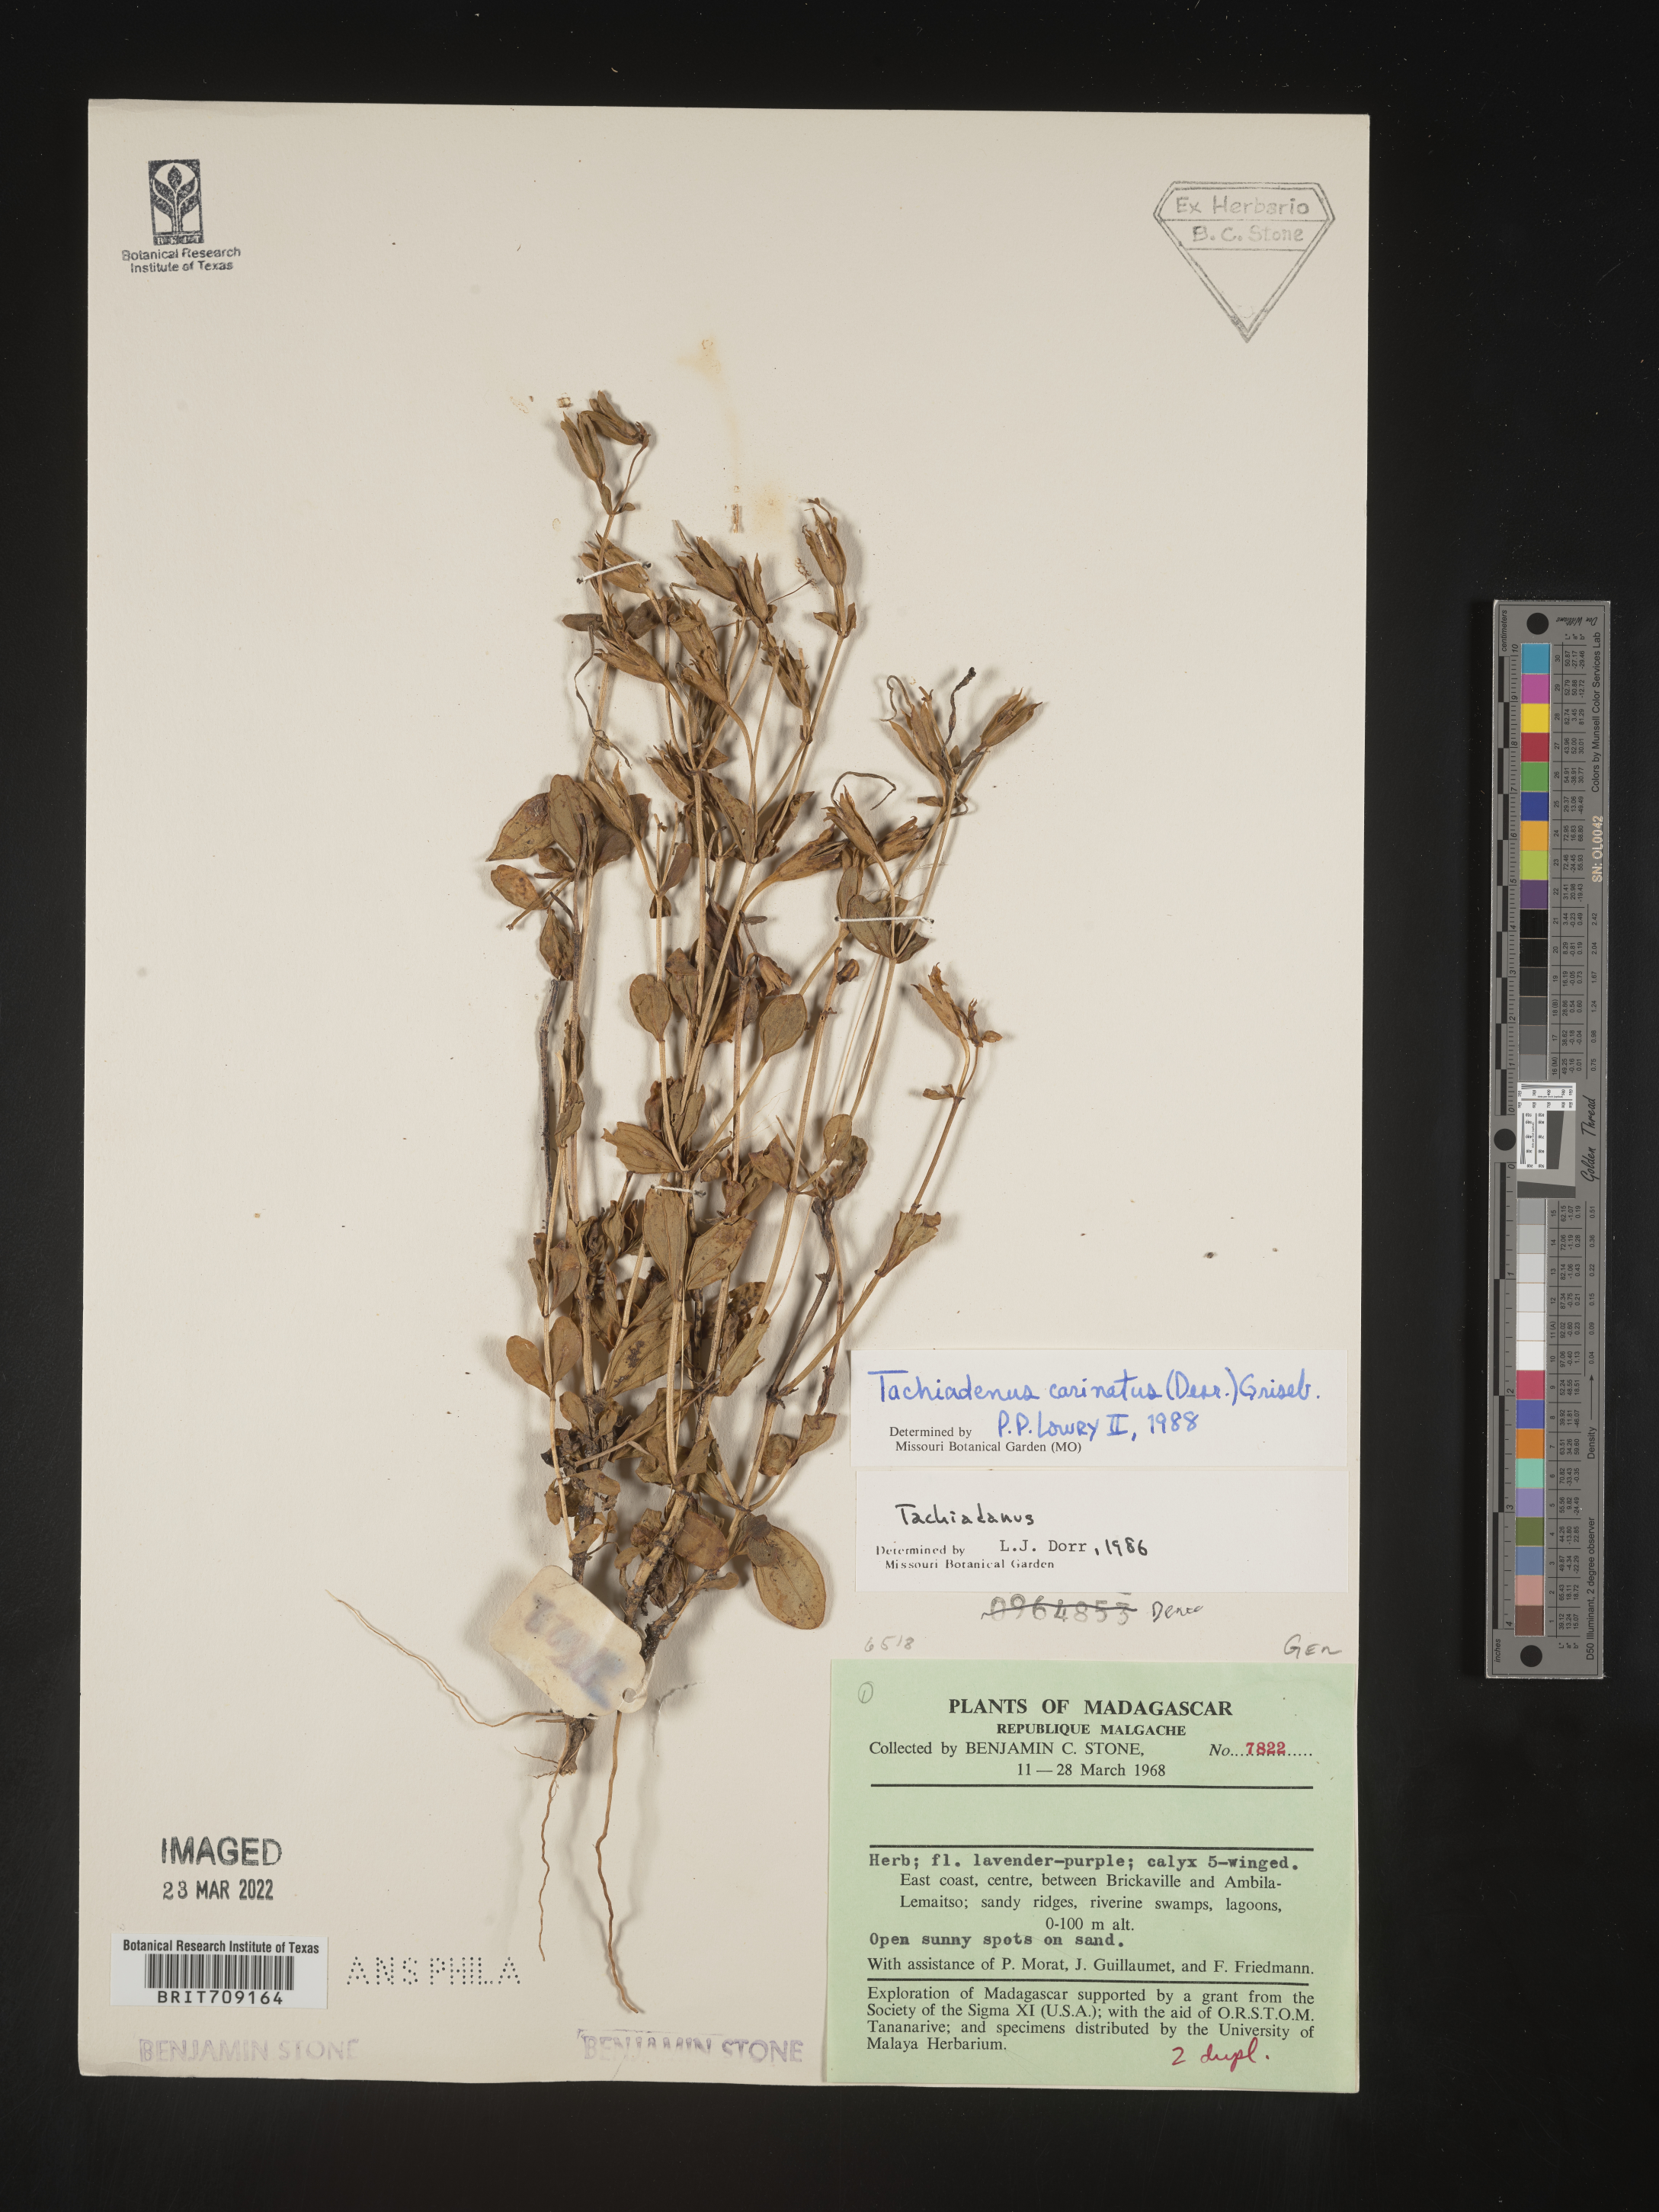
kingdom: Plantae
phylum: Tracheophyta
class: Magnoliopsida
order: Gentianales
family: Gentianaceae
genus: Tachiadenus
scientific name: Tachiadenus
